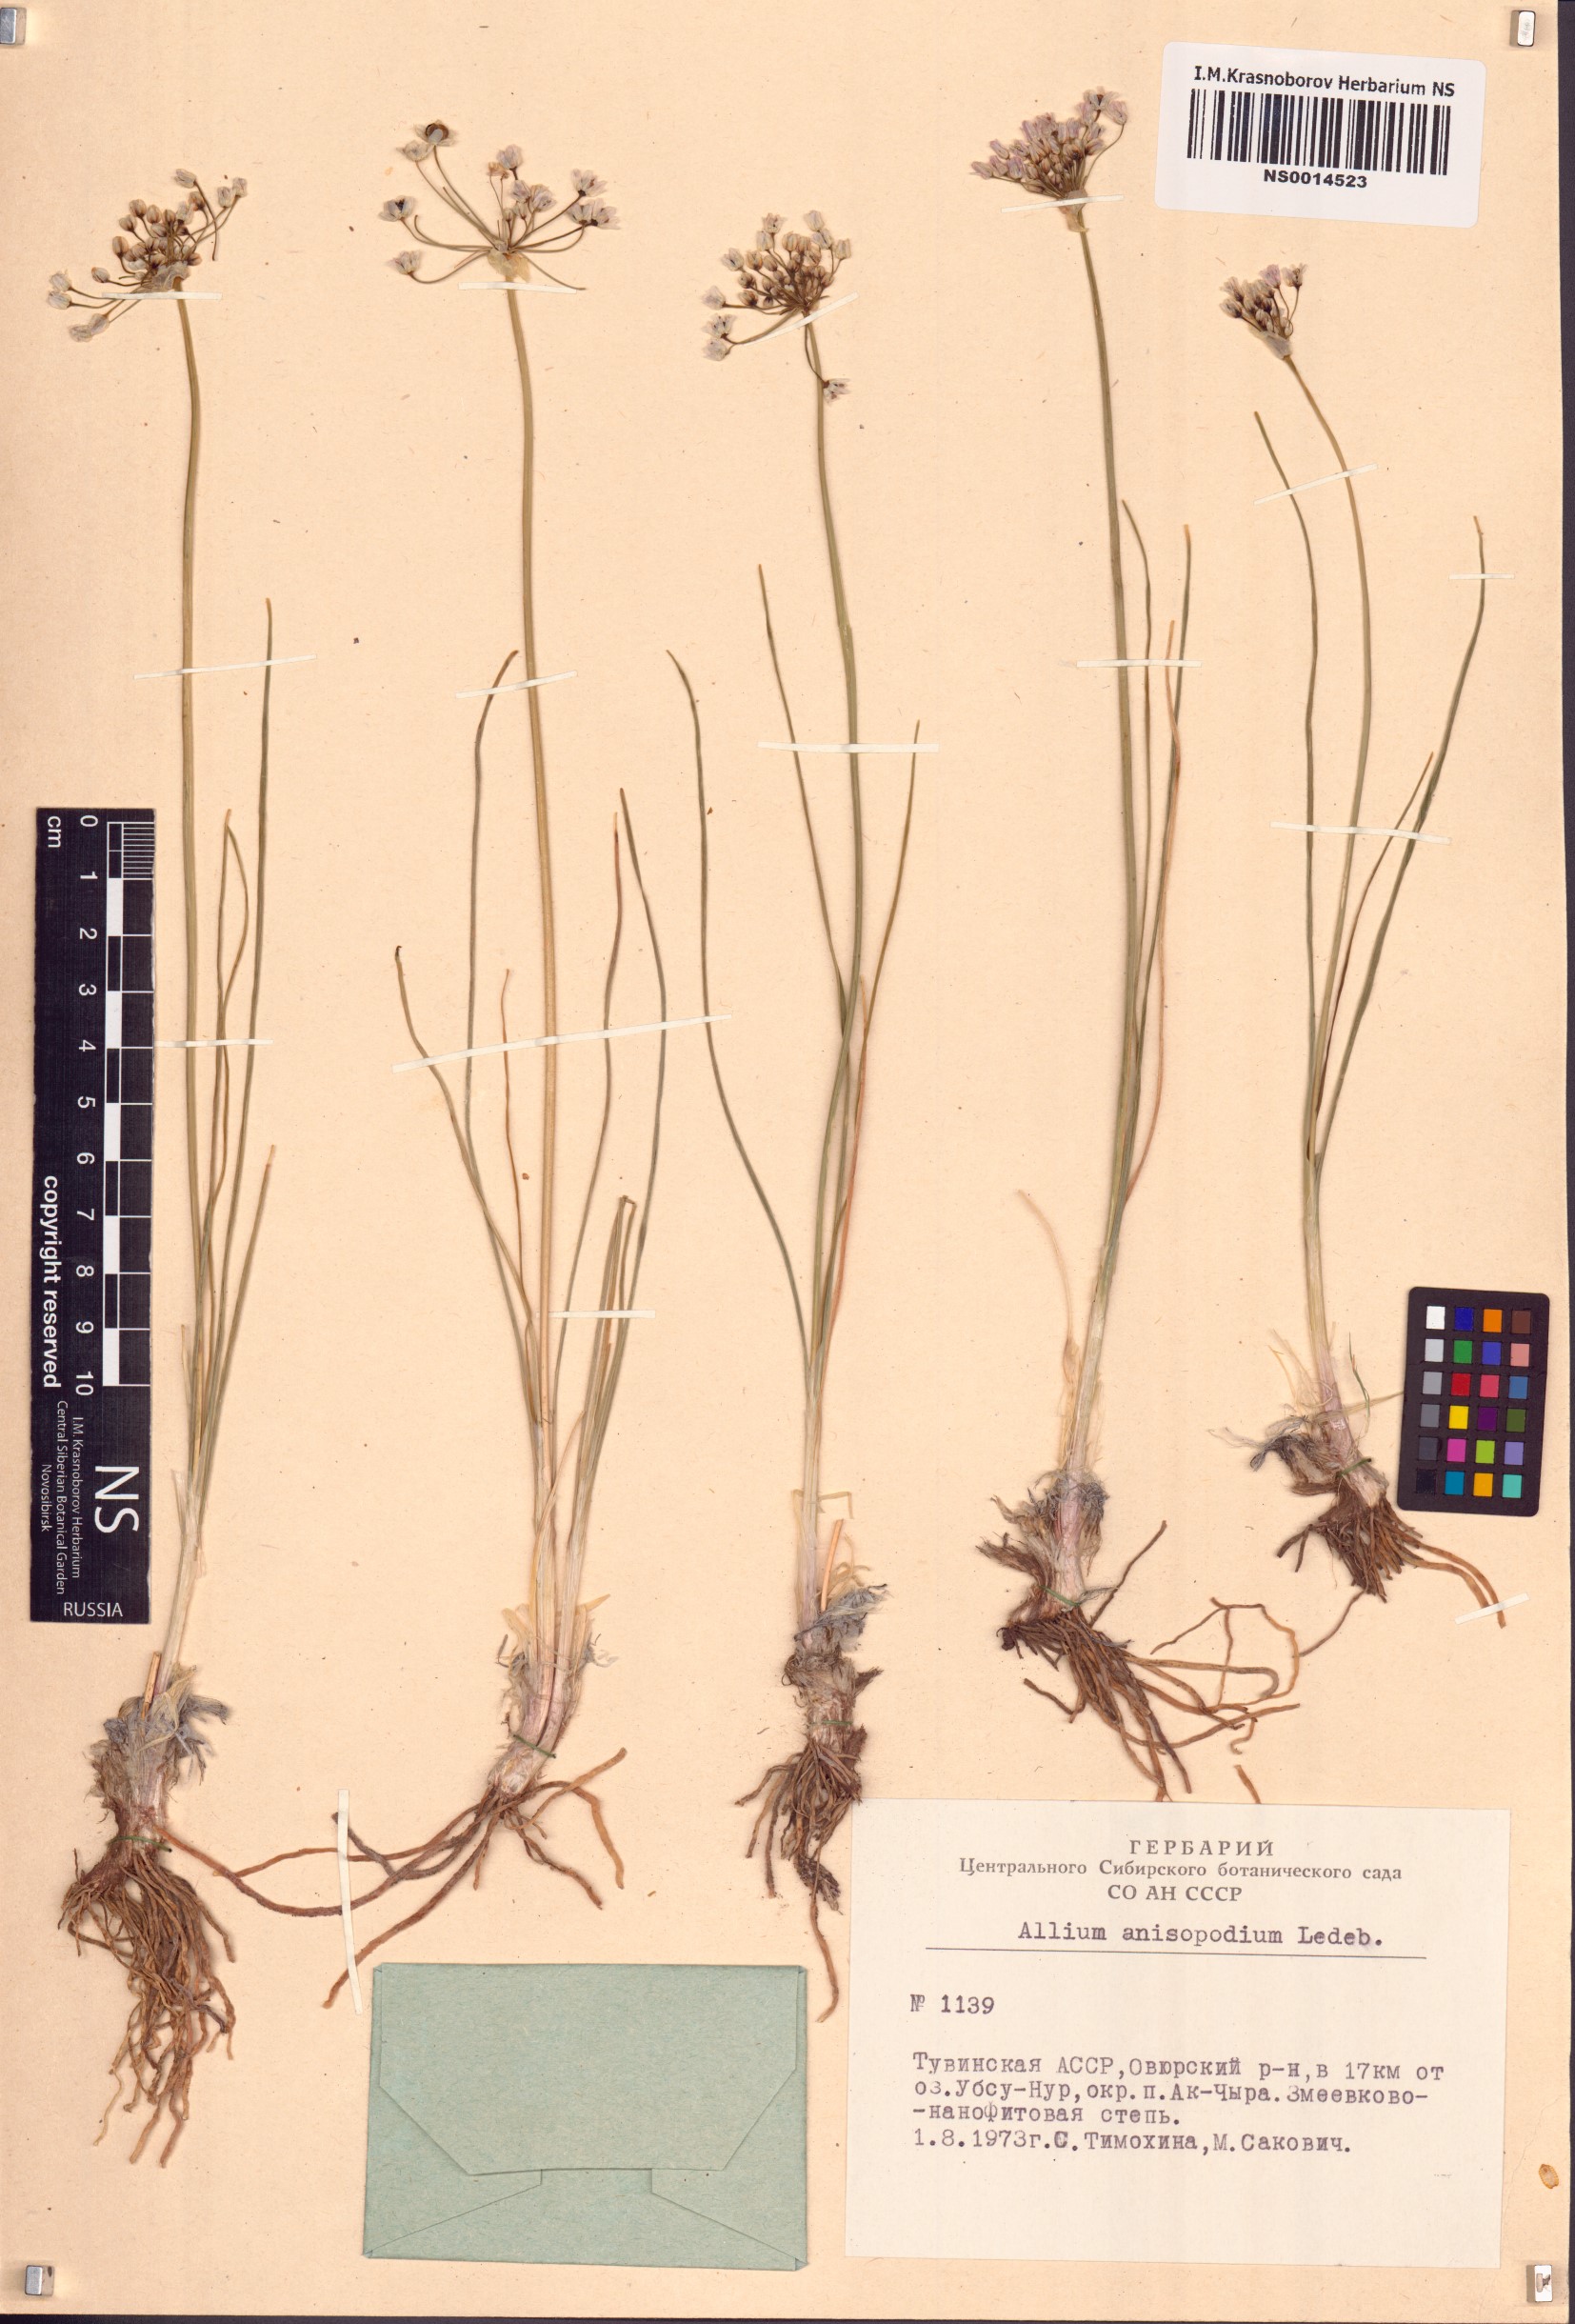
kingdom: Plantae
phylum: Tracheophyta
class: Liliopsida
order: Asparagales
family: Amaryllidaceae
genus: Allium
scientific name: Allium anisopodium
